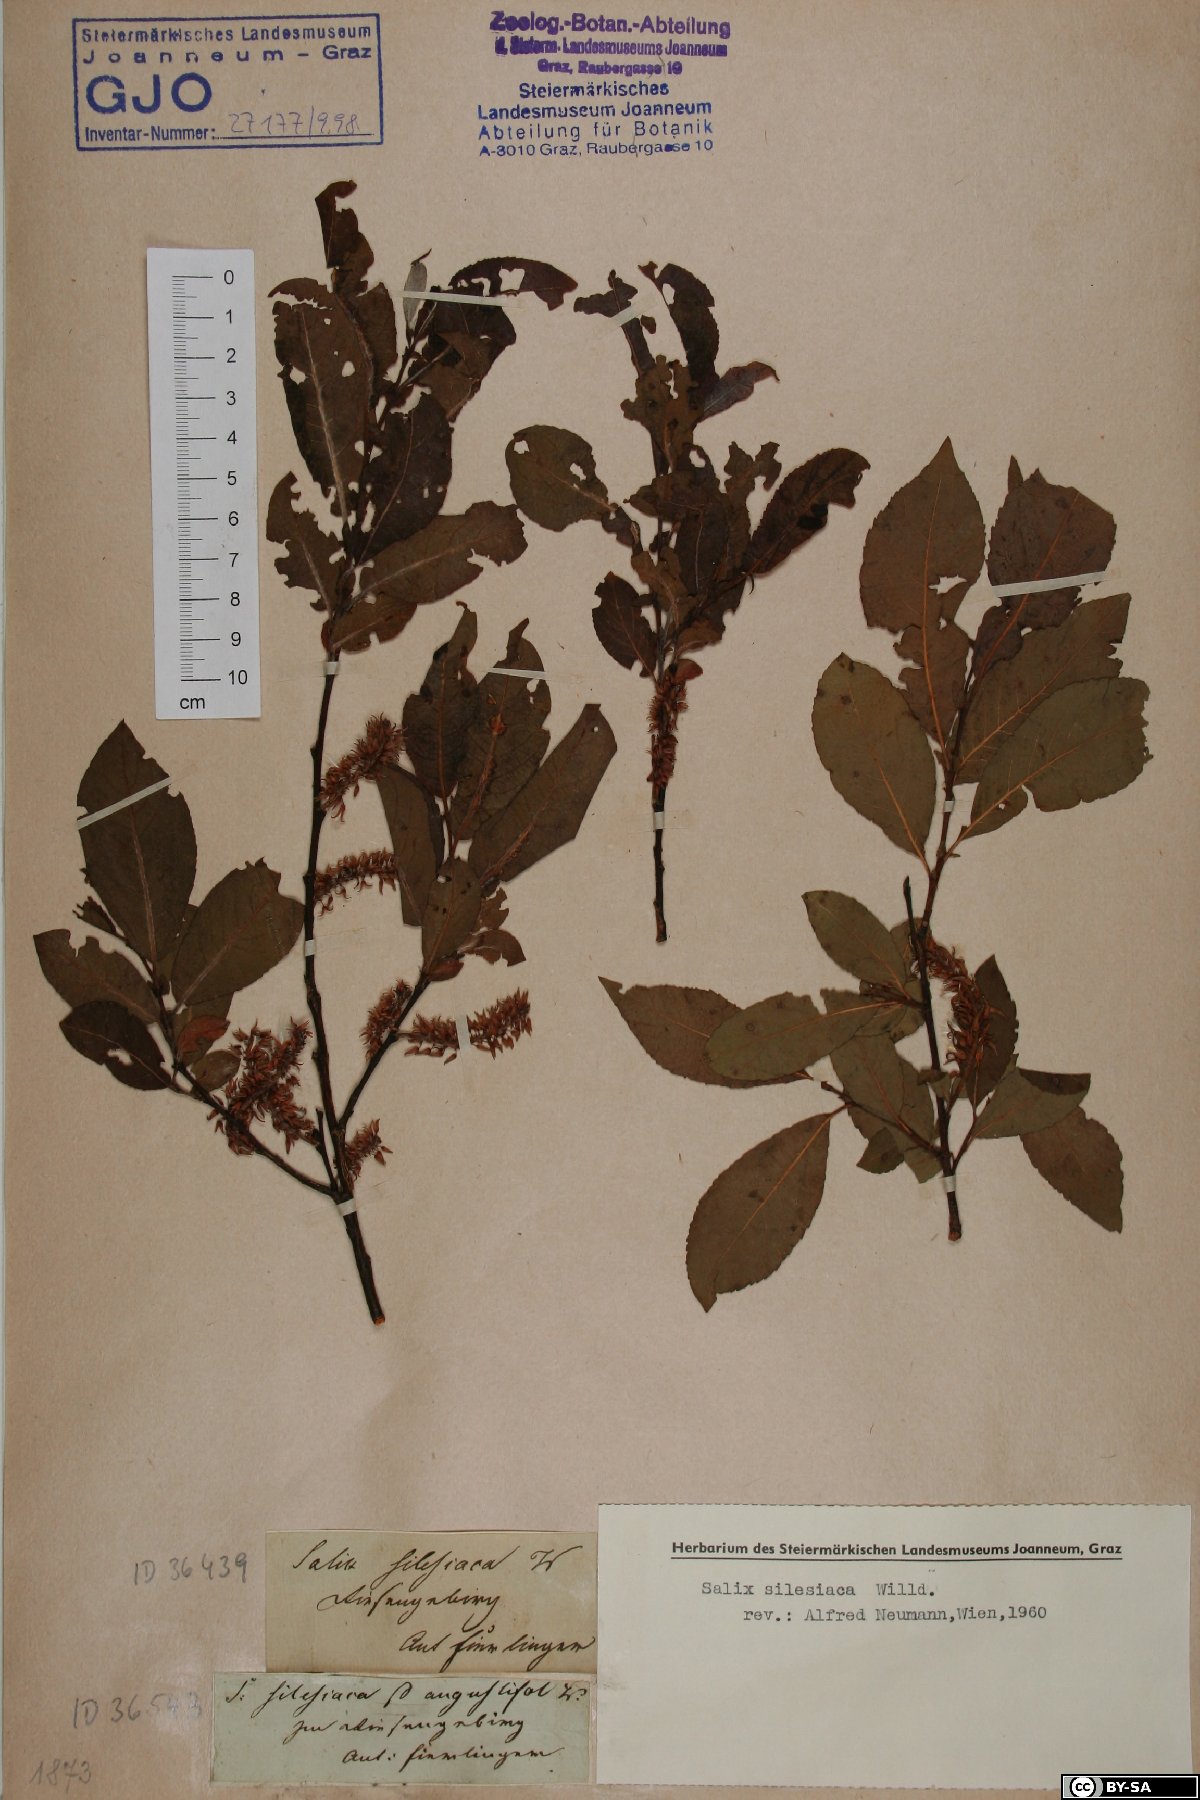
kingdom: Plantae
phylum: Tracheophyta
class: Magnoliopsida
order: Malpighiales
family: Salicaceae
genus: Salix
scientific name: Salix silesiaca
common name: Silesian willow
